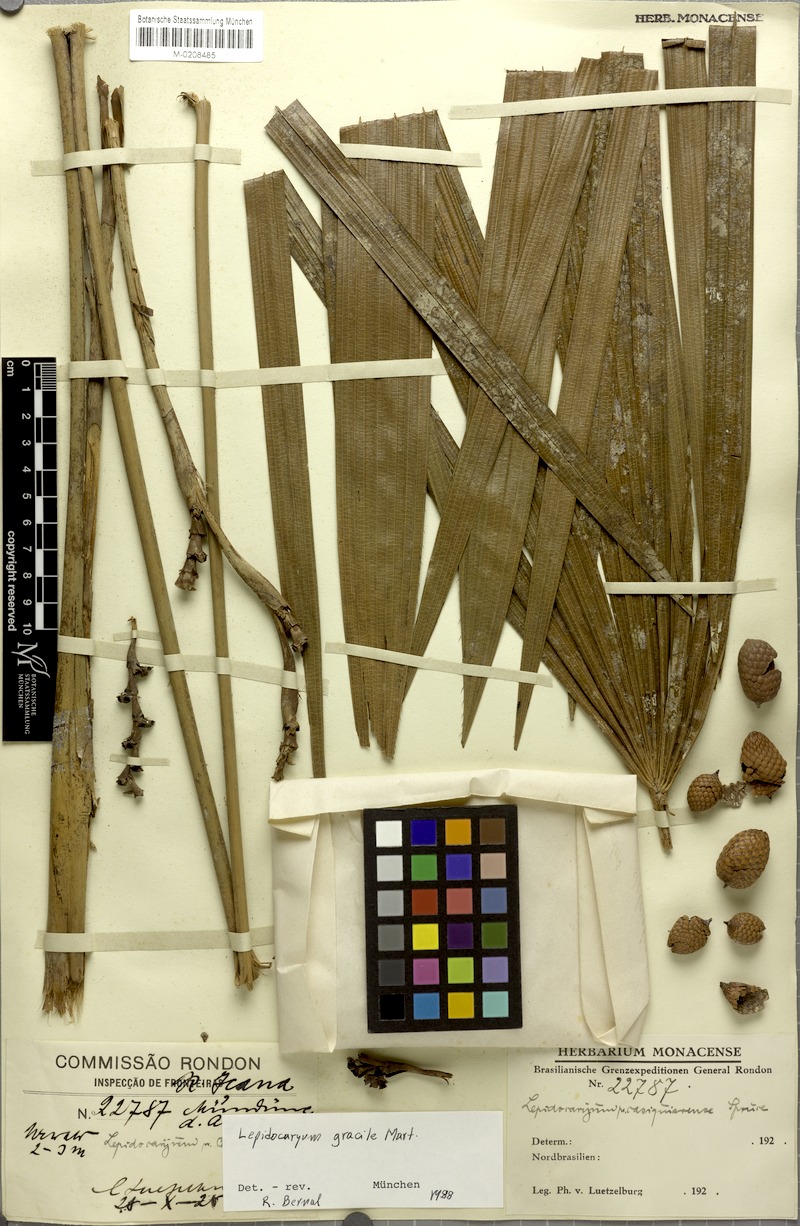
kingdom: Plantae
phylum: Tracheophyta
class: Liliopsida
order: Arecales
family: Arecaceae
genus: Lepidocaryum
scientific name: Lepidocaryum tenue
